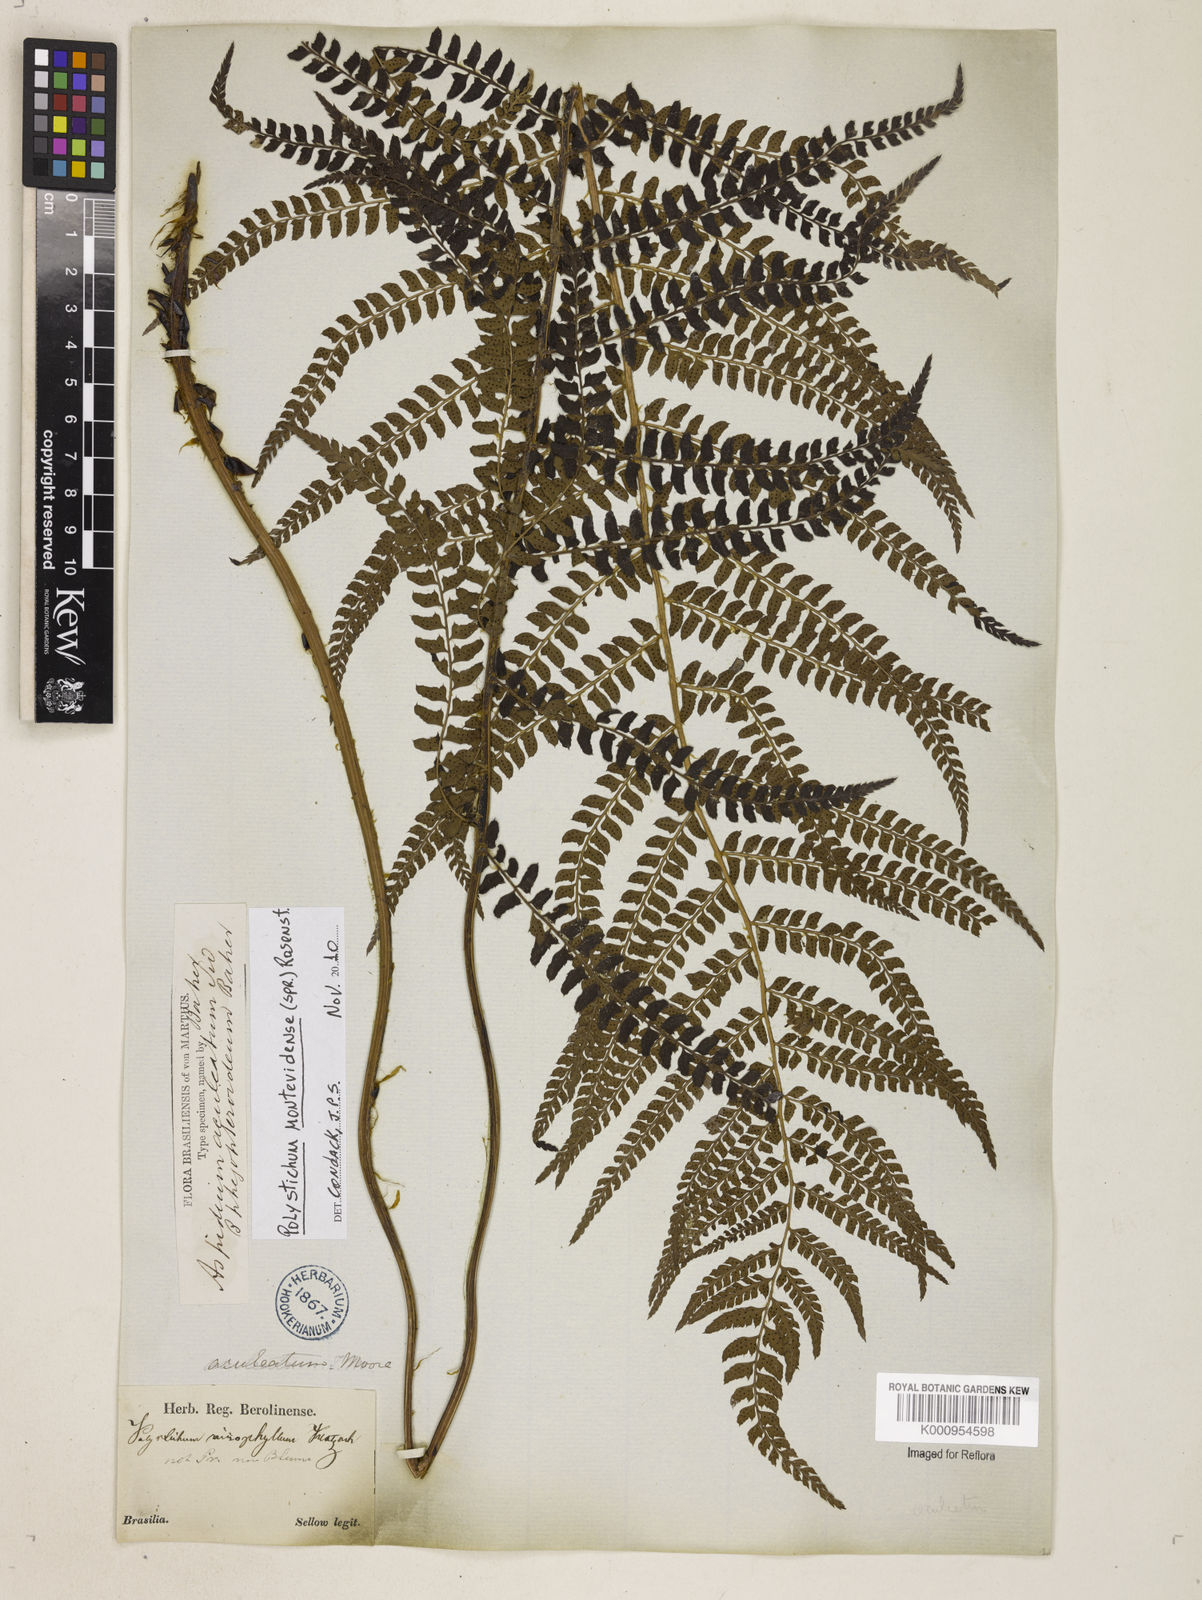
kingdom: Plantae
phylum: Tracheophyta
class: Polypodiopsida
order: Polypodiales
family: Dryopteridaceae
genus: Polystichum
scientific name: Polystichum montevidense
